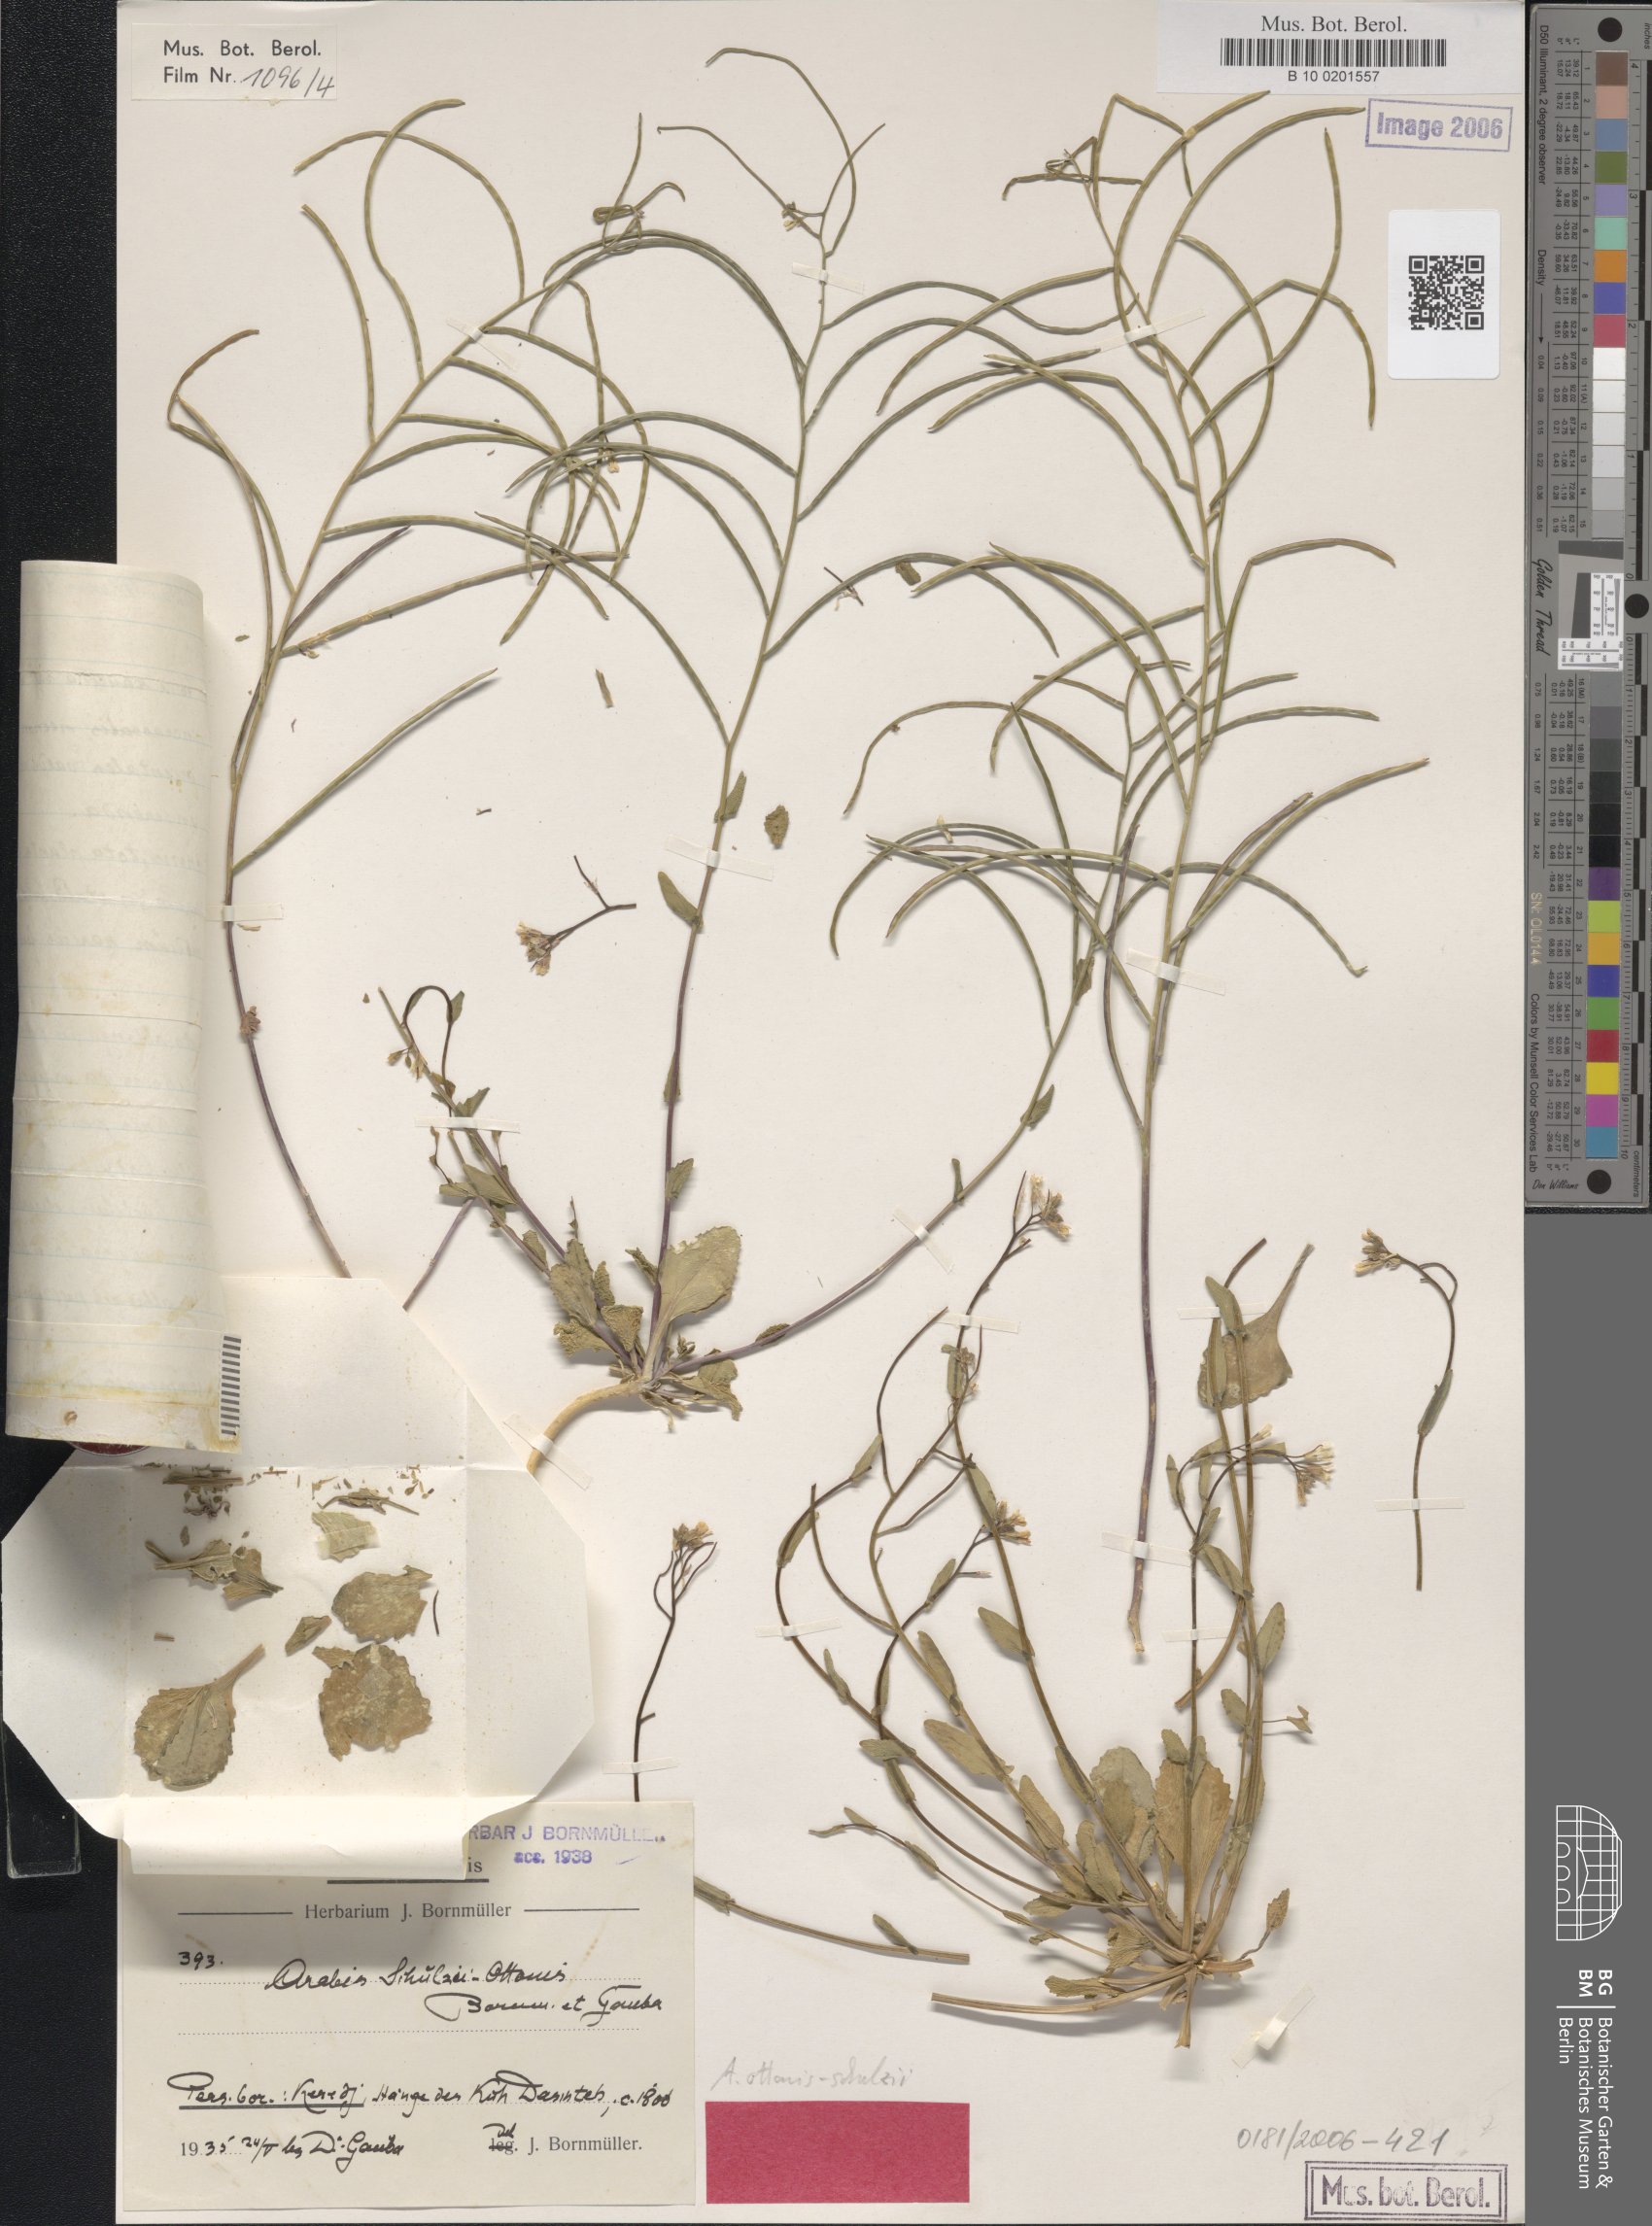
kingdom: Plantae
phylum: Tracheophyta
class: Magnoliopsida
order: Brassicales
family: Brassicaceae
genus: Arabis
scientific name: Arabis ottonis-schulzii
